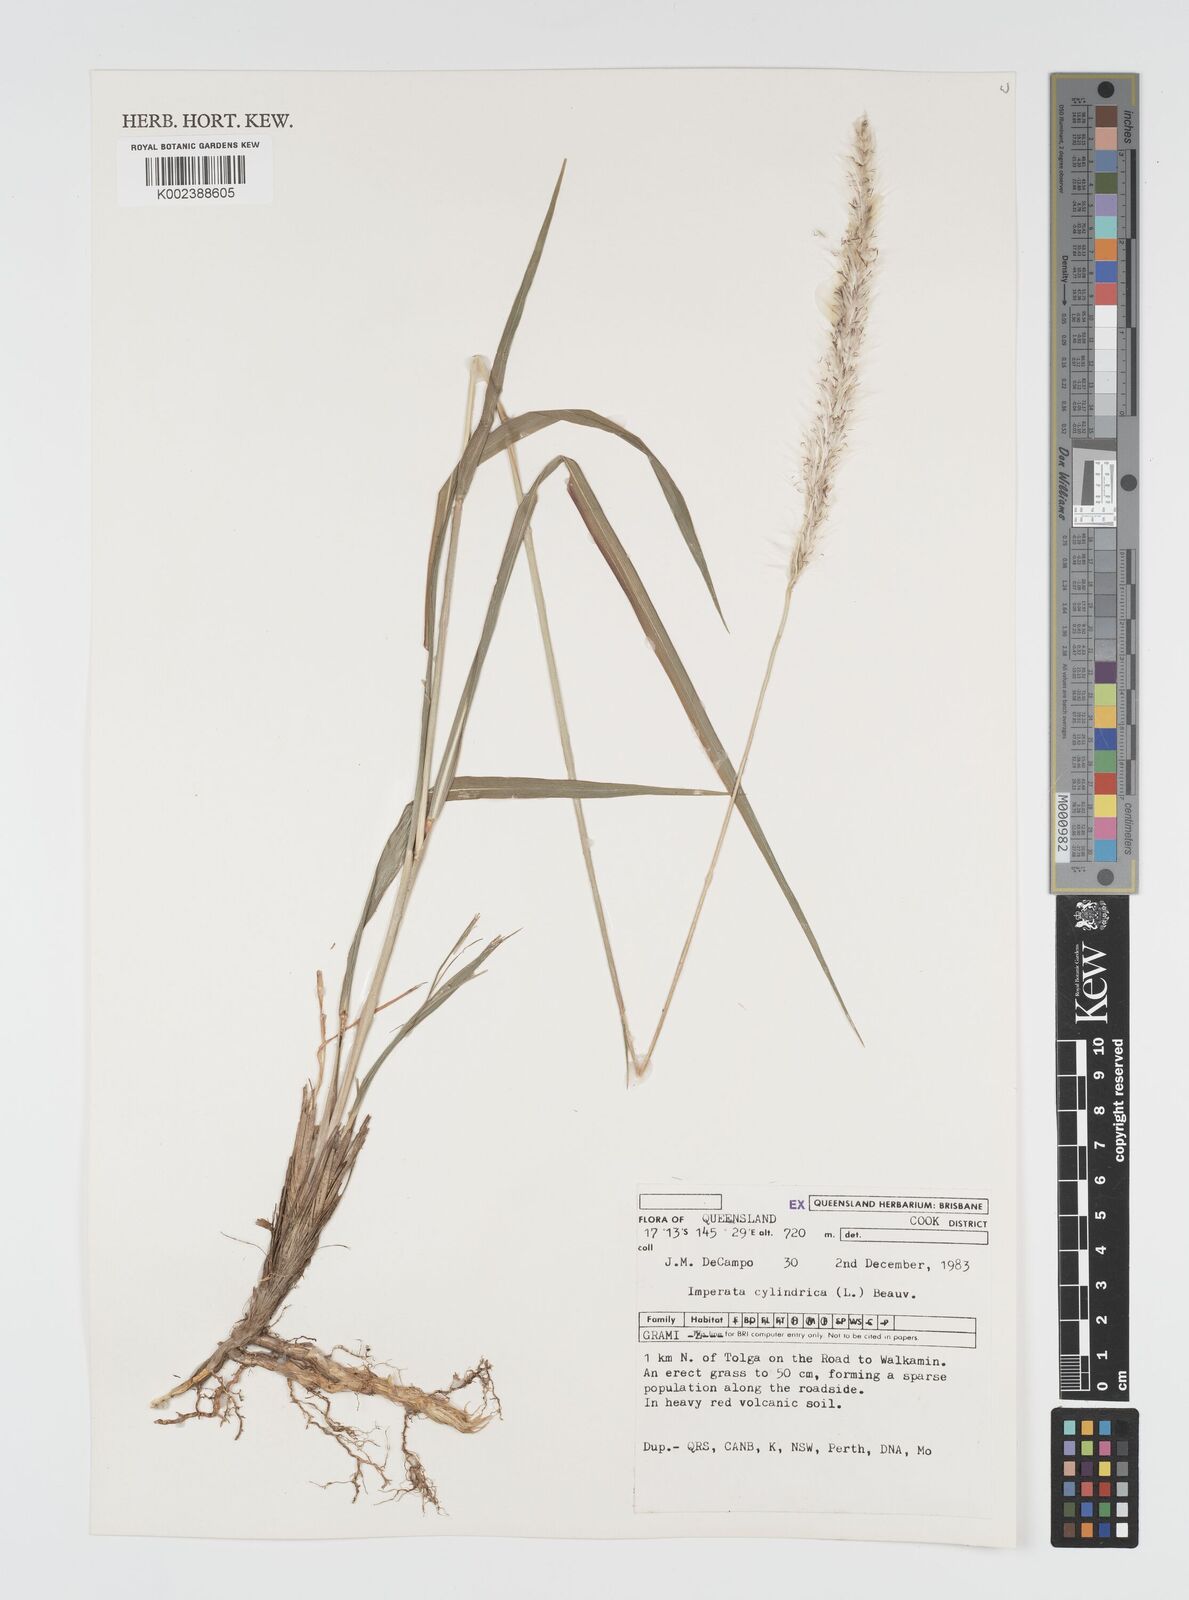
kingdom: Plantae
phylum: Tracheophyta
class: Liliopsida
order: Poales
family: Poaceae
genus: Imperata
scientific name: Imperata cylindrica
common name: Cogongrass
